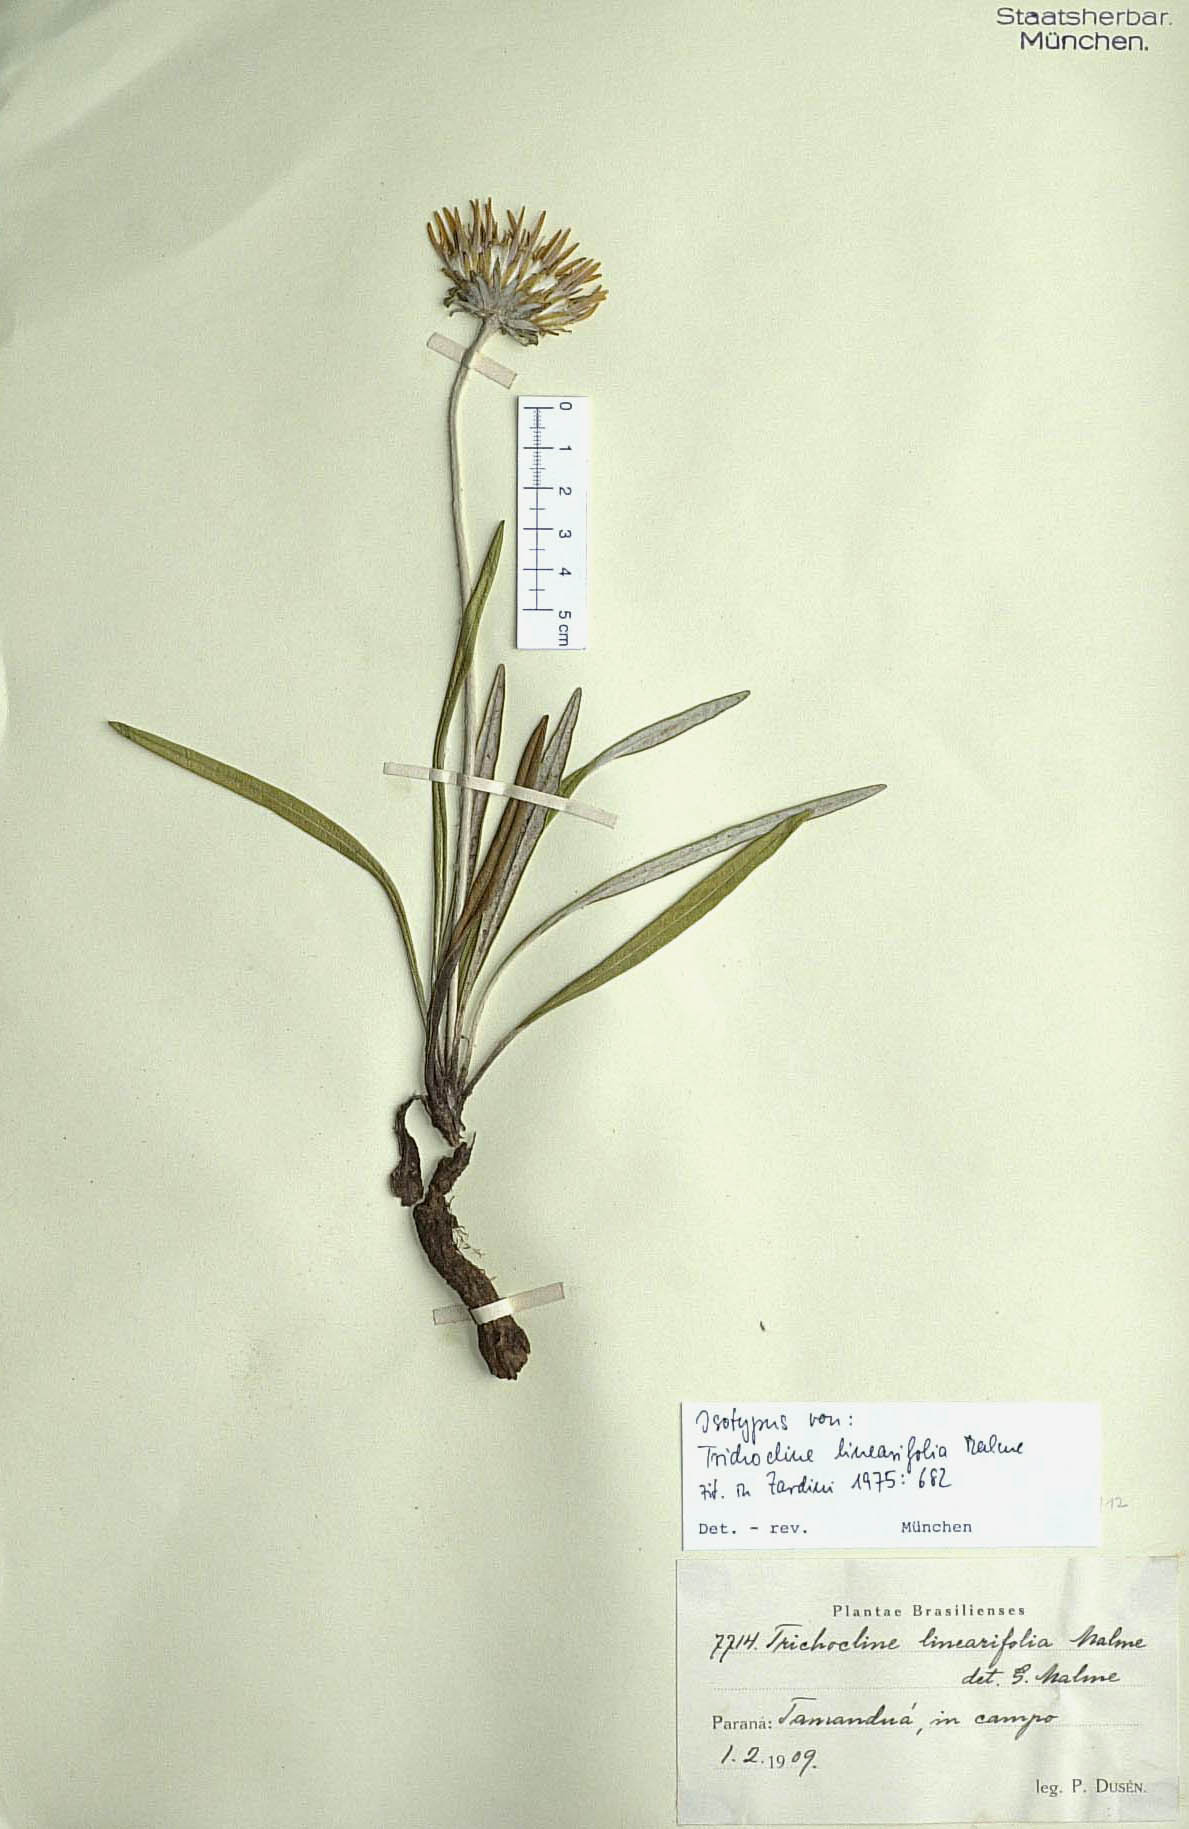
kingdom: Plantae
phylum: Tracheophyta
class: Magnoliopsida
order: Asterales
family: Asteraceae
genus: Trichocline
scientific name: Trichocline linearifolia
